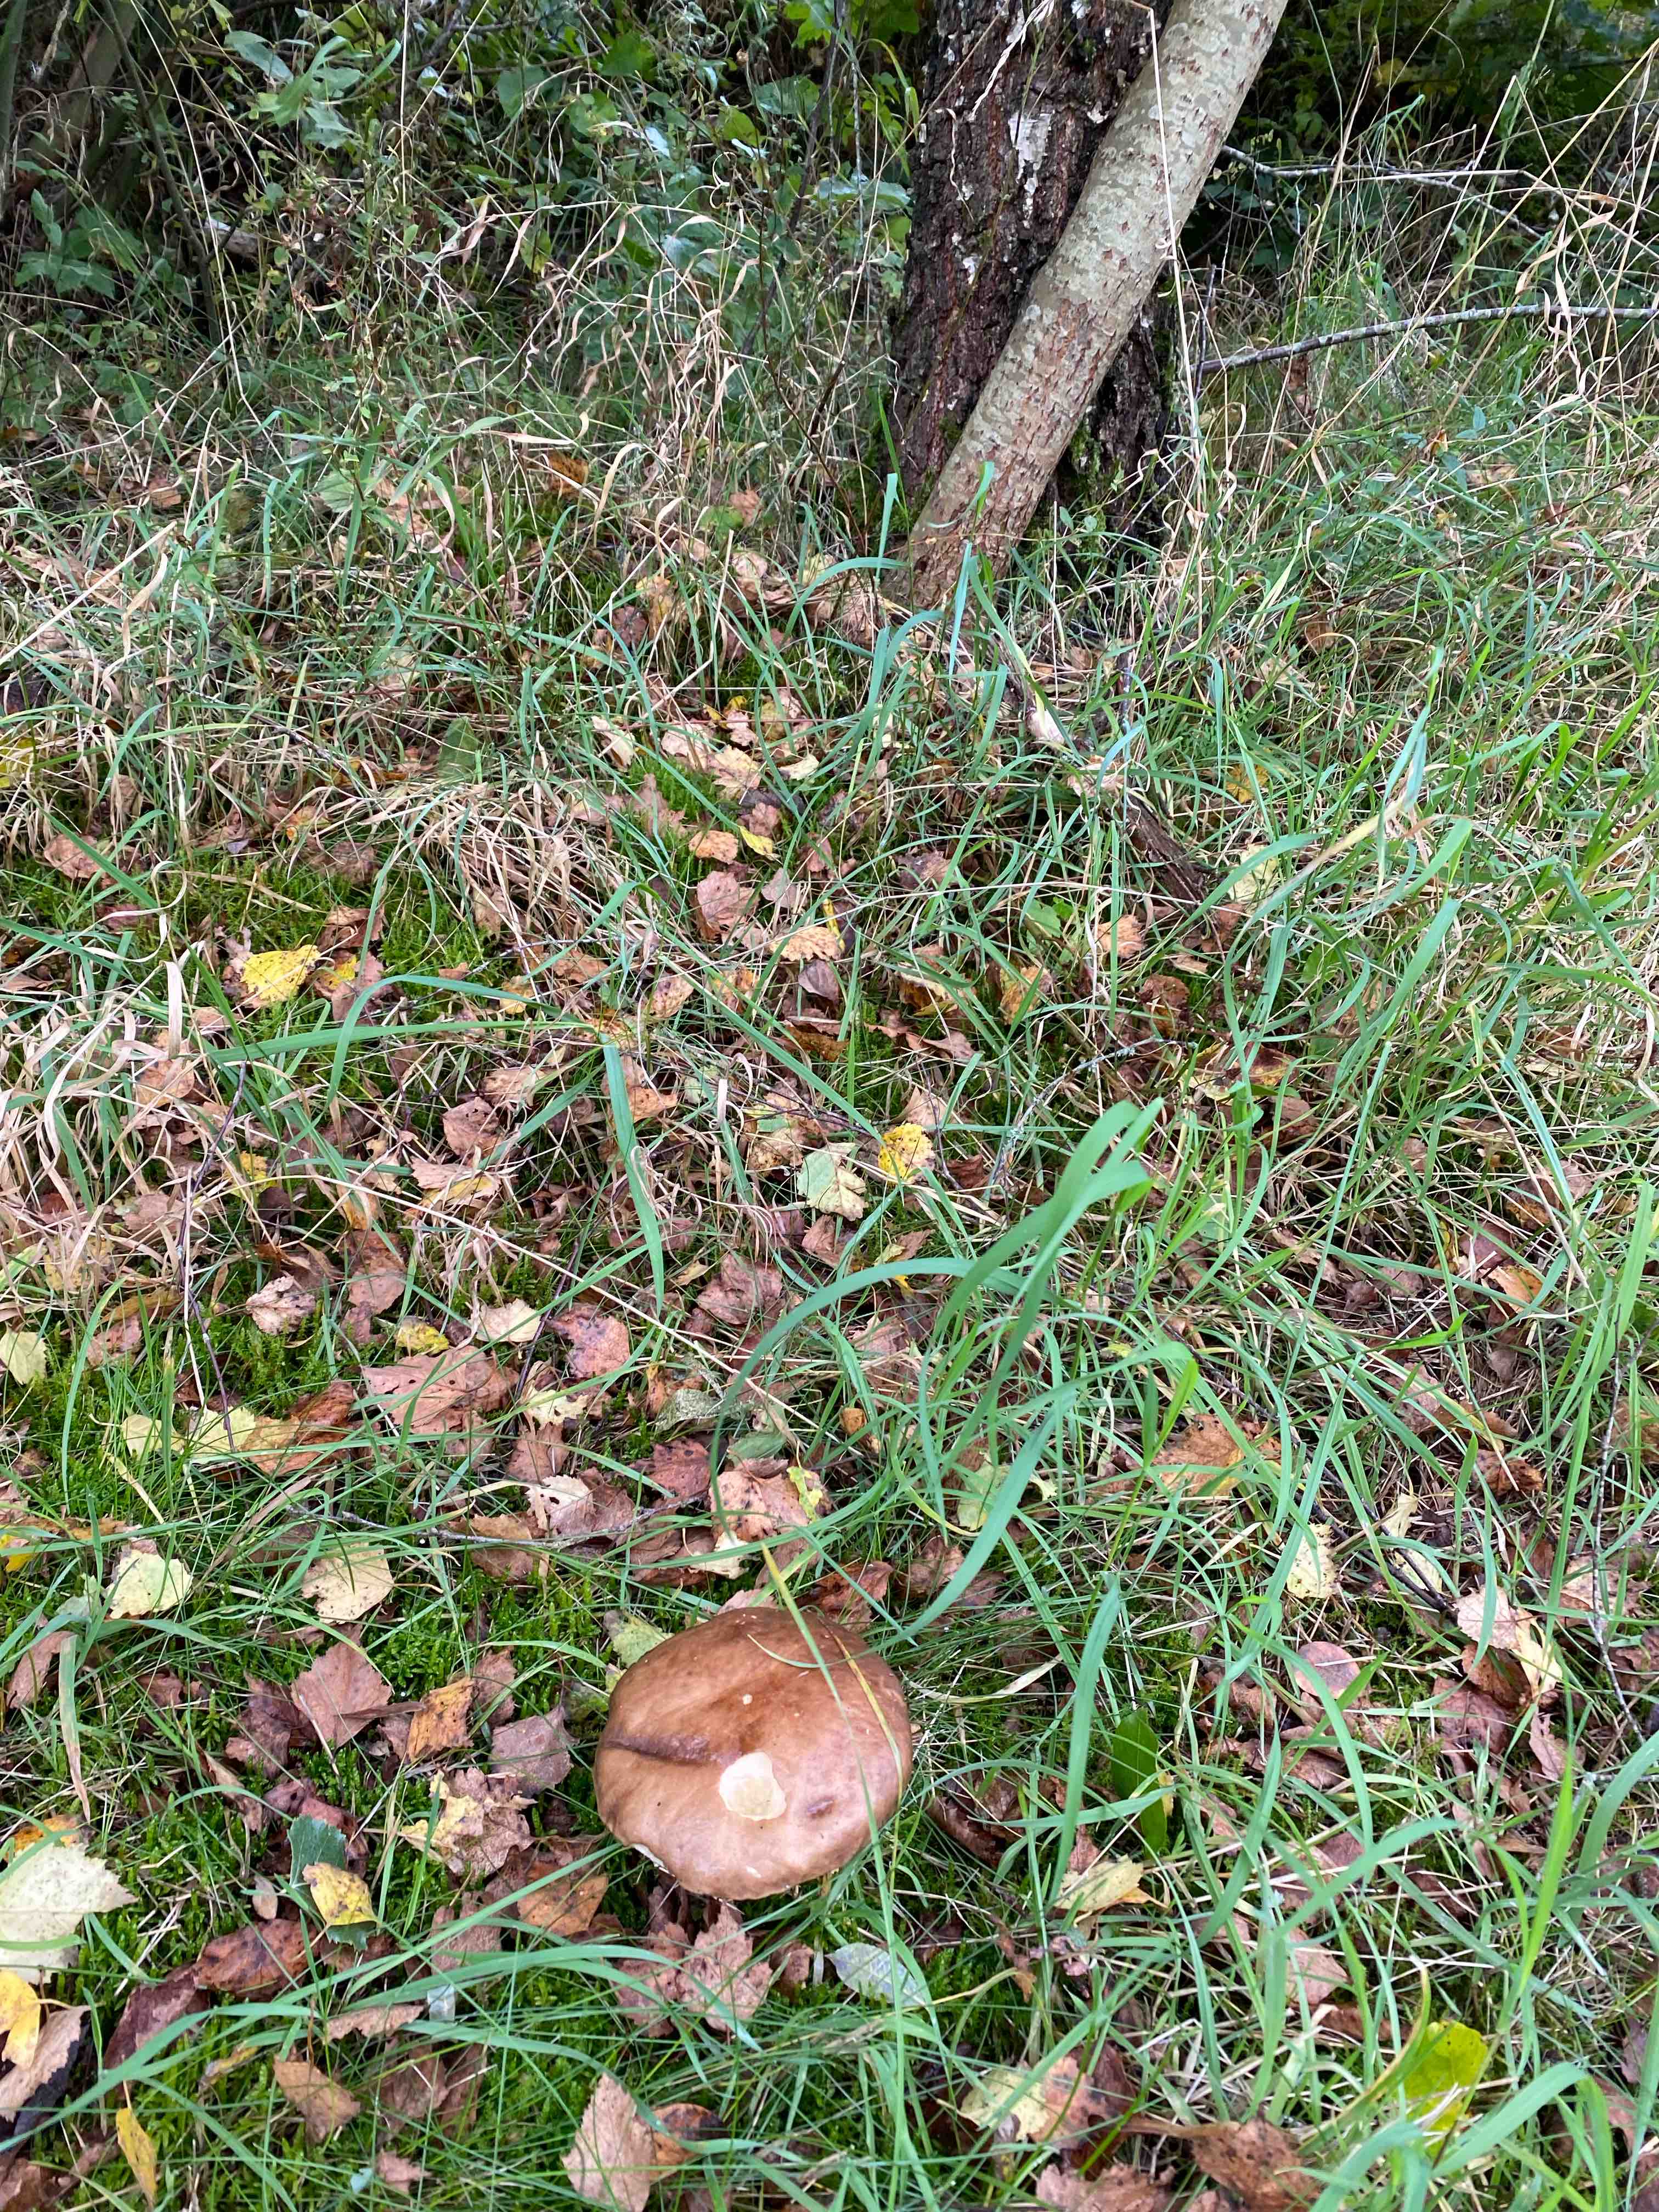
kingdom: Fungi
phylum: Basidiomycota
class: Agaricomycetes
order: Boletales
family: Boletaceae
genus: Leccinum
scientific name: Leccinum scabrum
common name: brun skælrørhat
